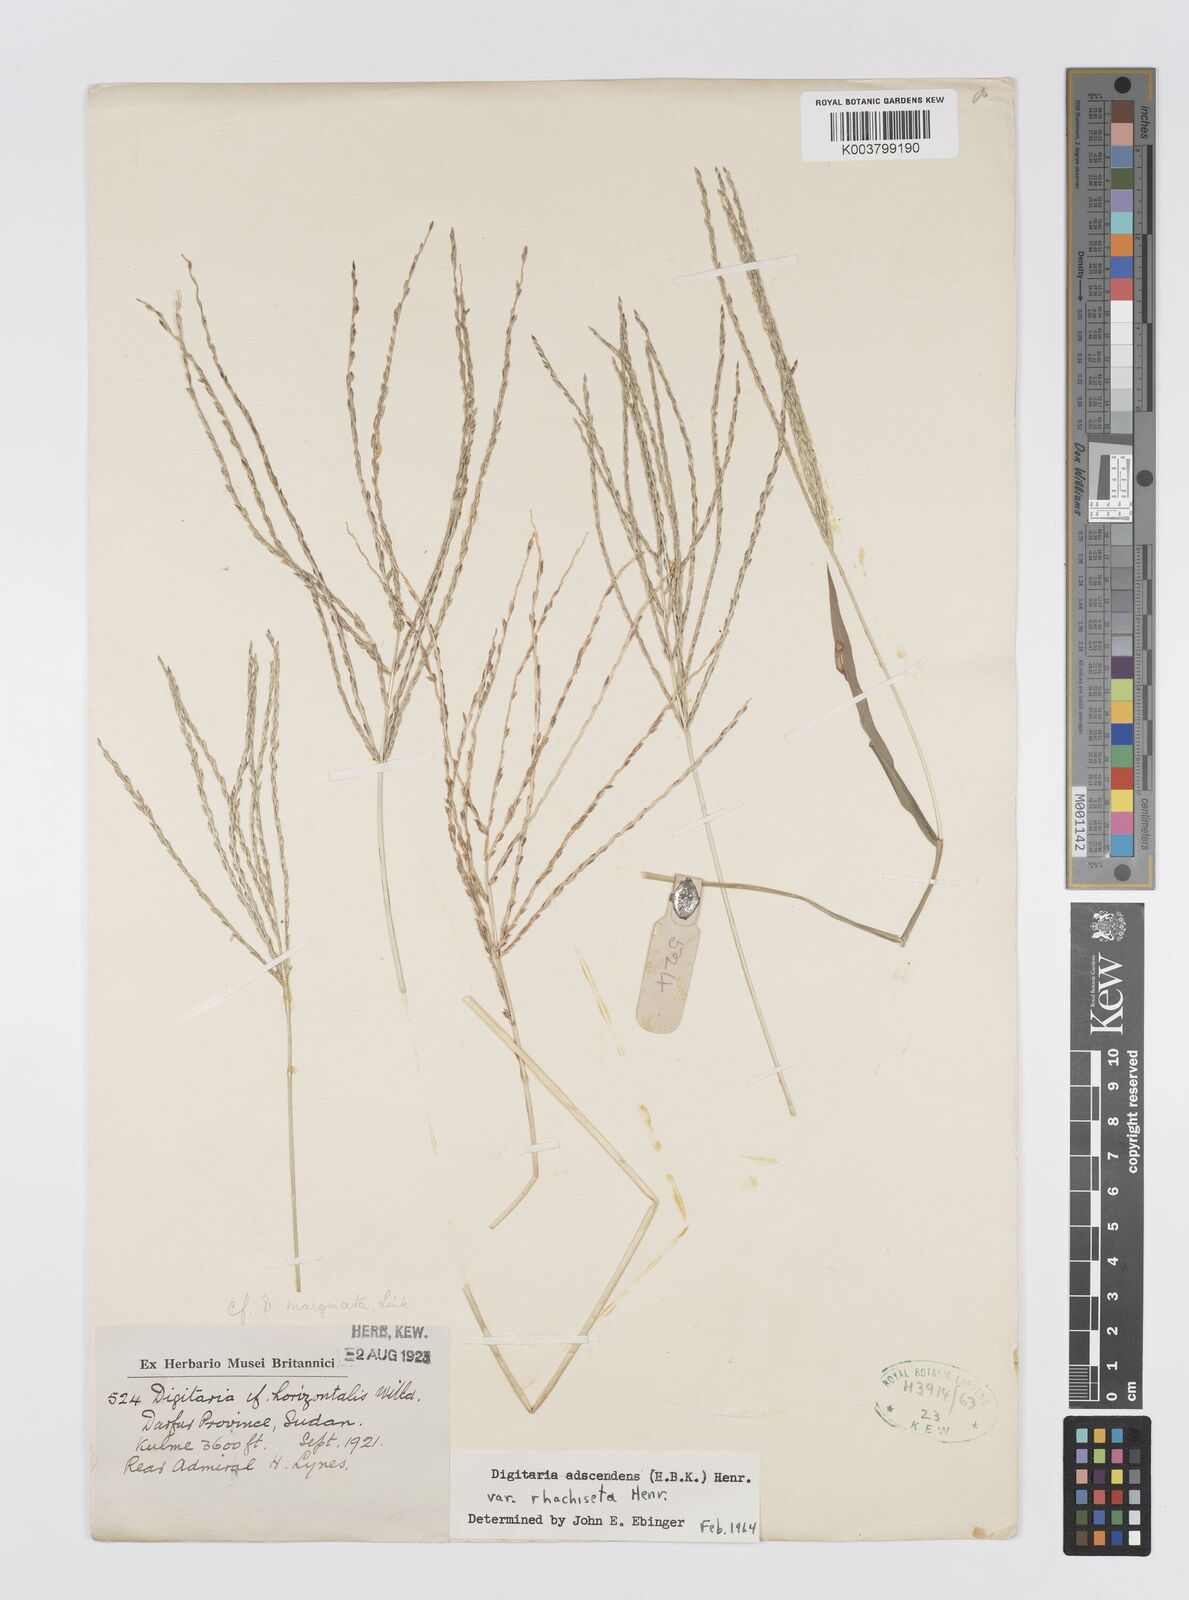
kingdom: Plantae
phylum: Tracheophyta
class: Liliopsida
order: Poales
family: Poaceae
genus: Digitaria
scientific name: Digitaria spec
